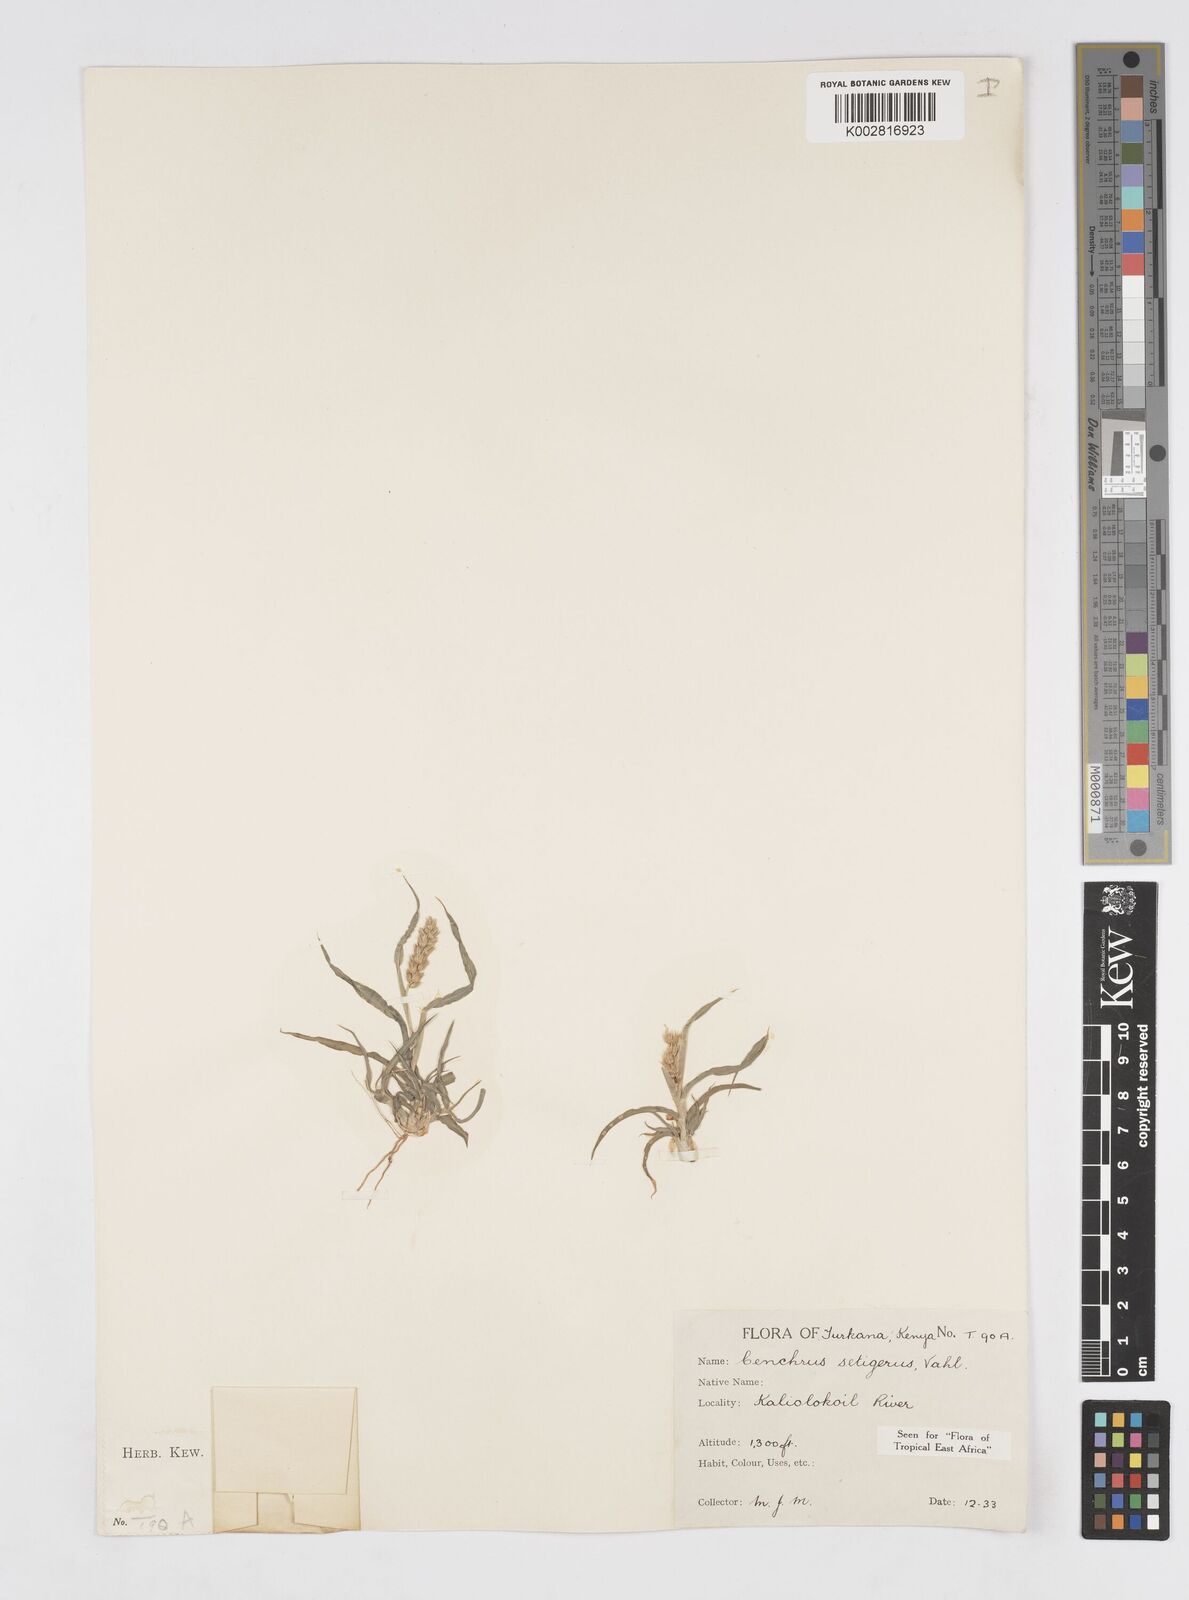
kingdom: Plantae
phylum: Tracheophyta
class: Liliopsida
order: Poales
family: Poaceae
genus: Cenchrus
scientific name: Cenchrus setigerus
